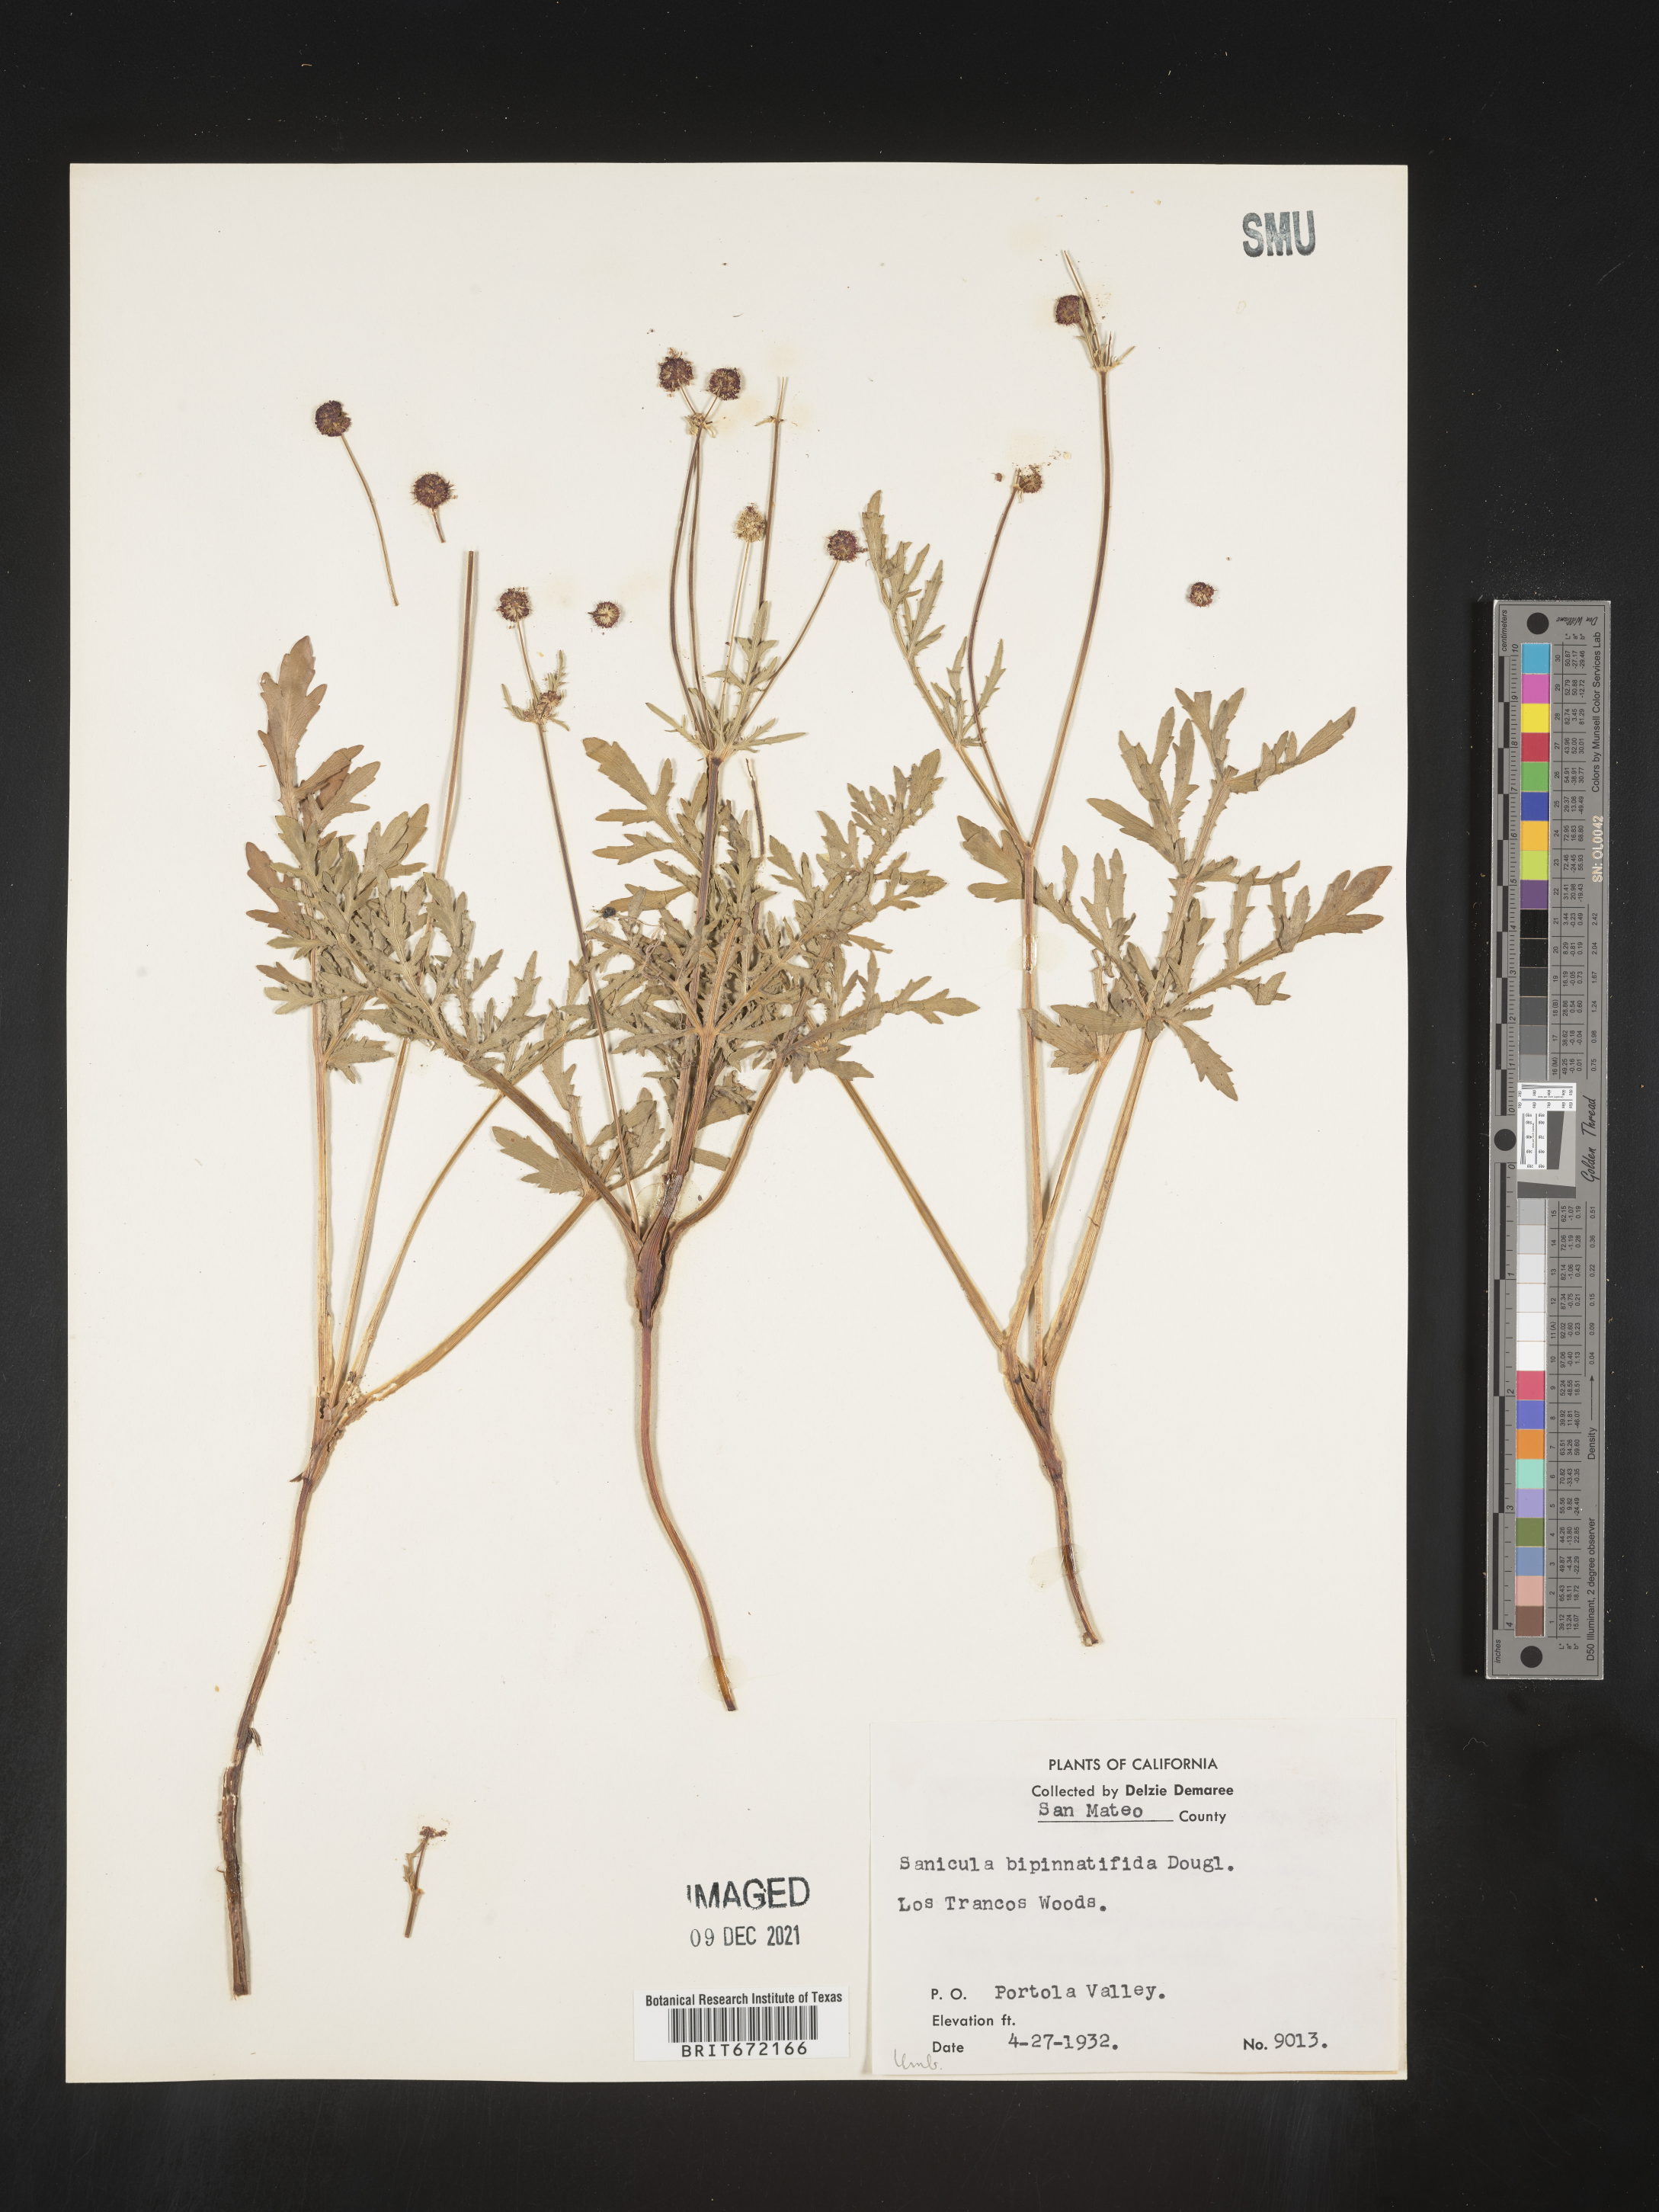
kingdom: Plantae
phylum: Tracheophyta
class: Magnoliopsida
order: Apiales
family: Apiaceae
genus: Sanicula
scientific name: Sanicula
